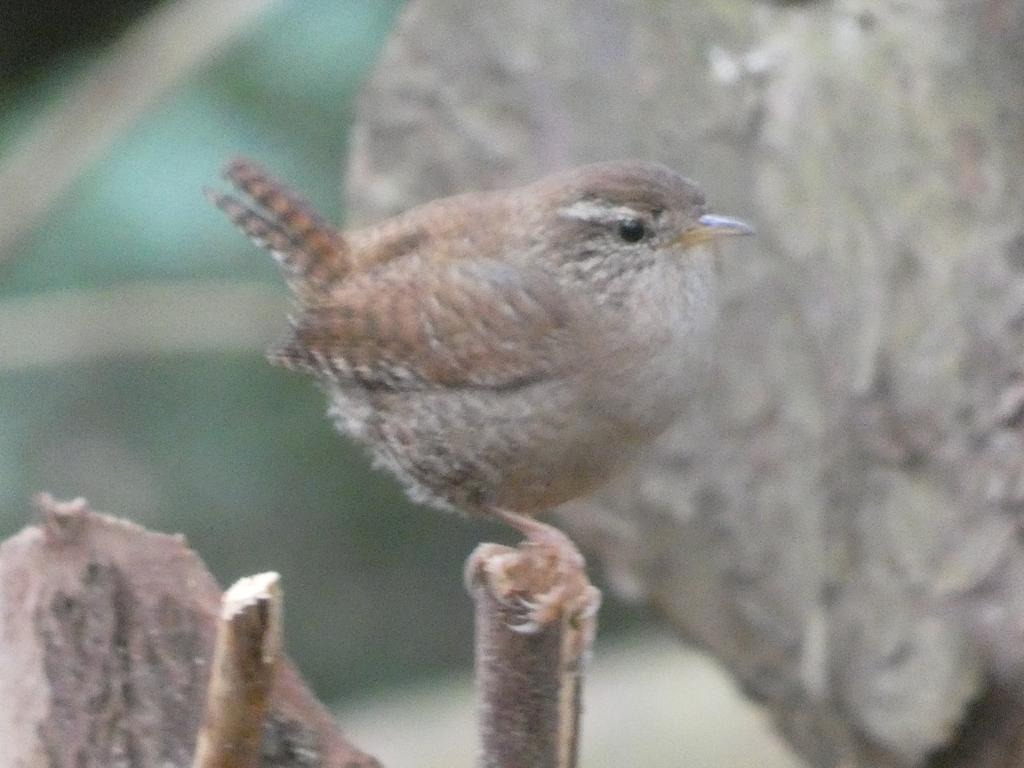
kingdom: Animalia
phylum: Chordata
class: Aves
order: Passeriformes
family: Troglodytidae
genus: Troglodytes
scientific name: Troglodytes troglodytes
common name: Gærdesmutte
